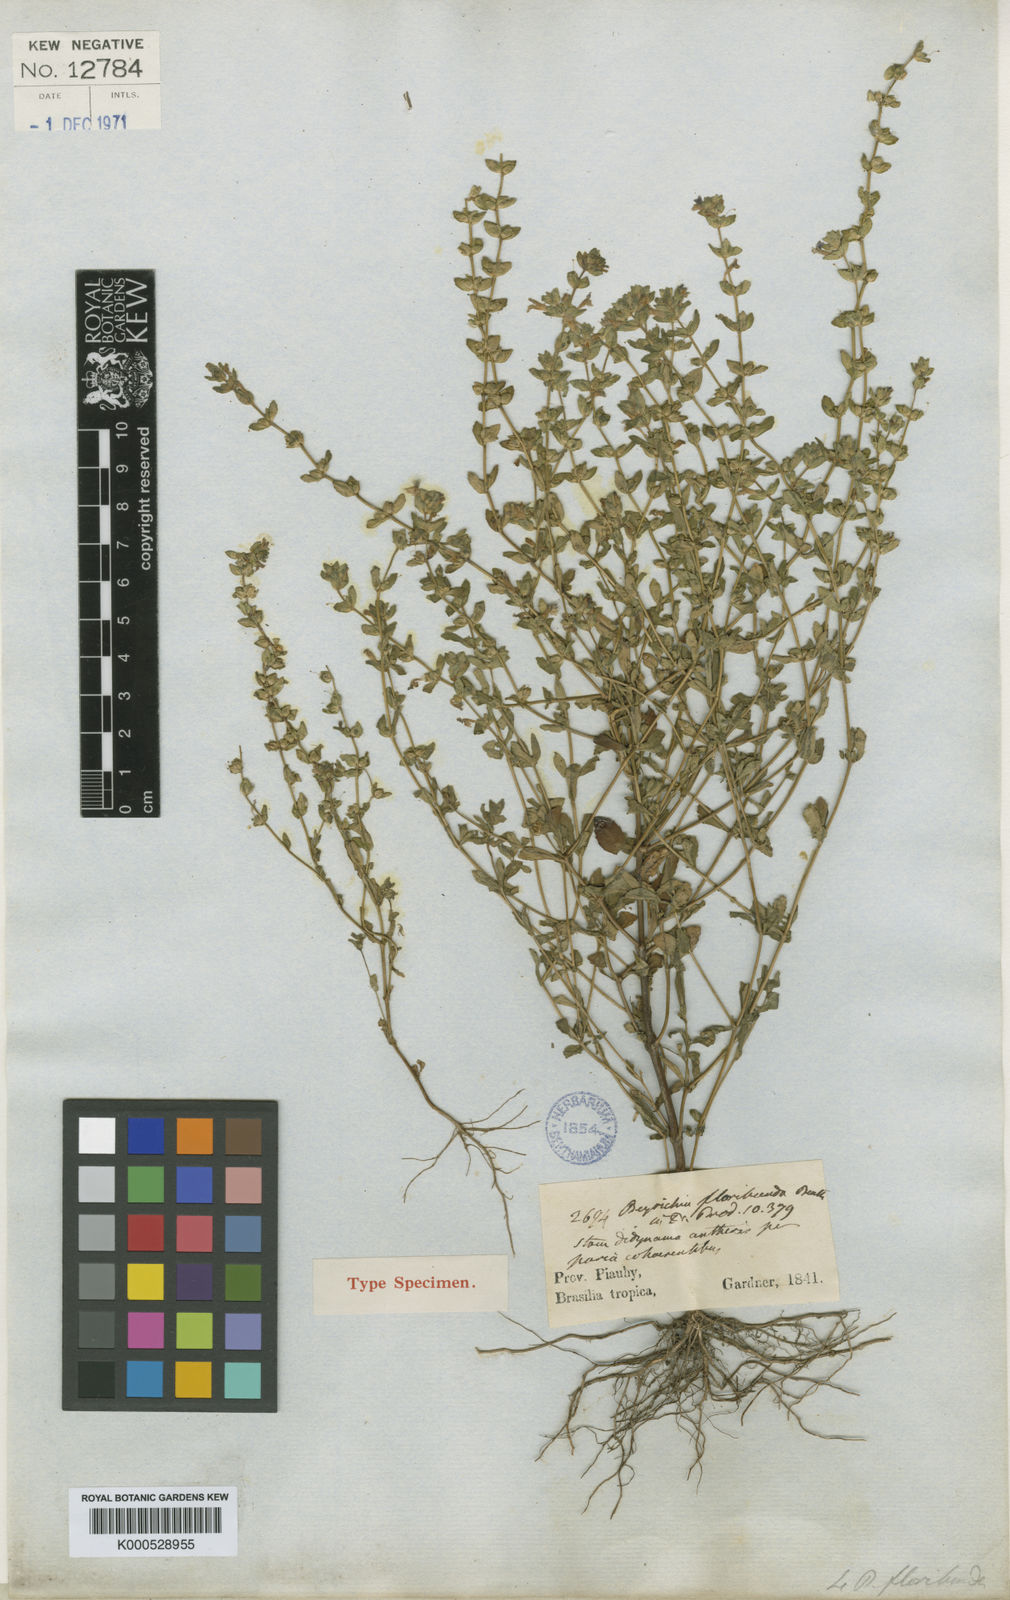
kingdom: Plantae
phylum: Tracheophyta
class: Magnoliopsida
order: Lamiales
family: Plantaginaceae
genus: Dizygostemon
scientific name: Dizygostemon
